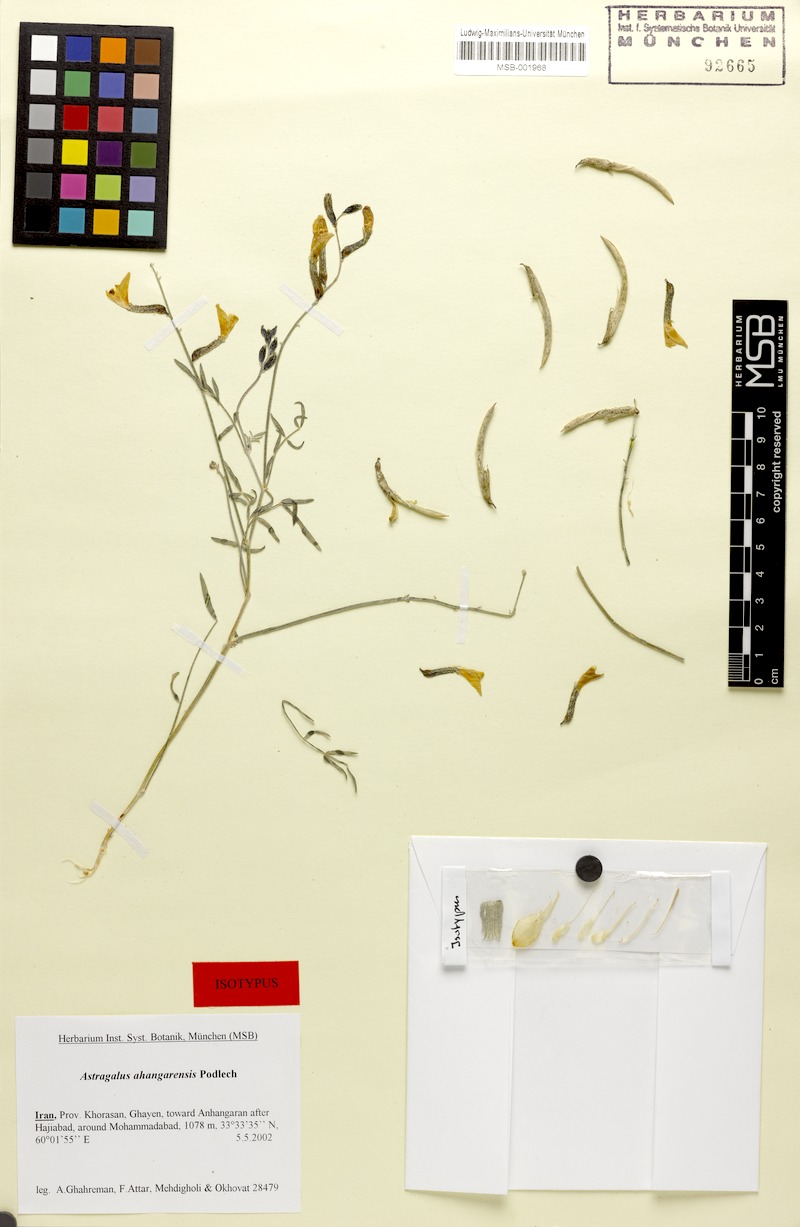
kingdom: Plantae
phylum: Tracheophyta
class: Magnoliopsida
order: Fabales
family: Fabaceae
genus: Astragalus
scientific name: Astragalus ahangarensis
